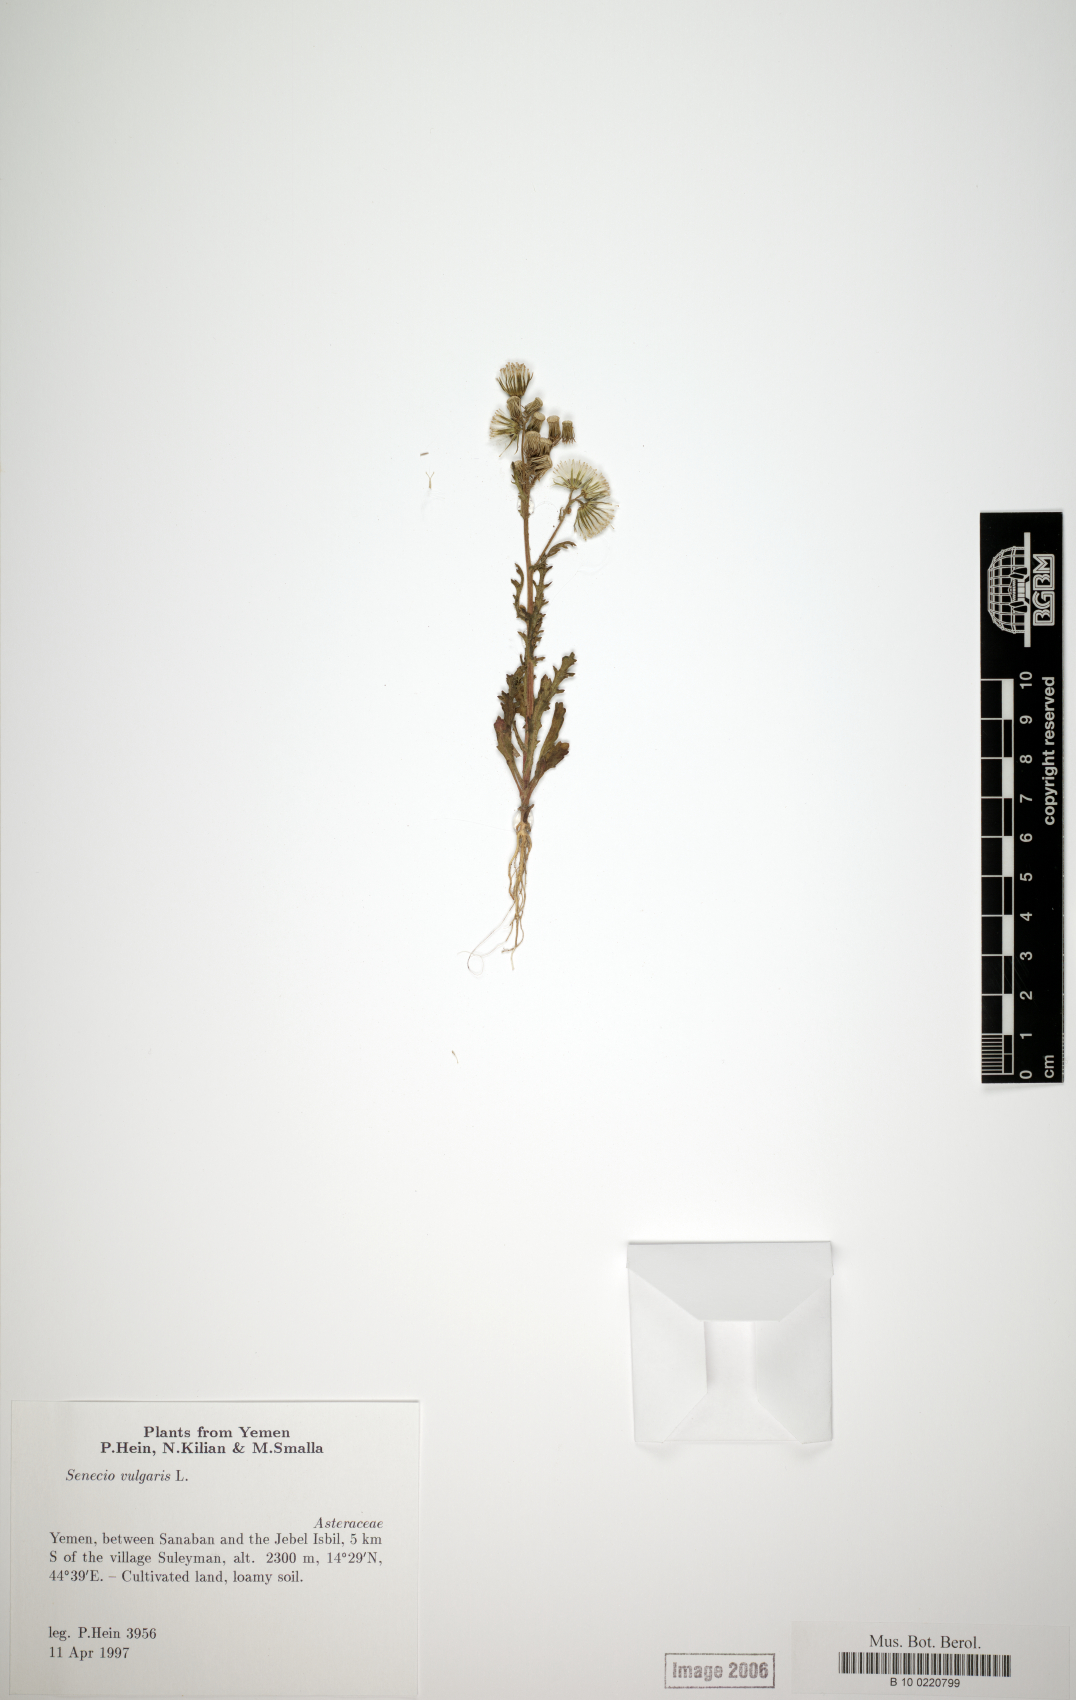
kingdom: Plantae
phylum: Tracheophyta
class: Magnoliopsida
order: Asterales
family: Asteraceae
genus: Senecio
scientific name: Senecio vulgaris
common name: Old-man-in-the-spring
